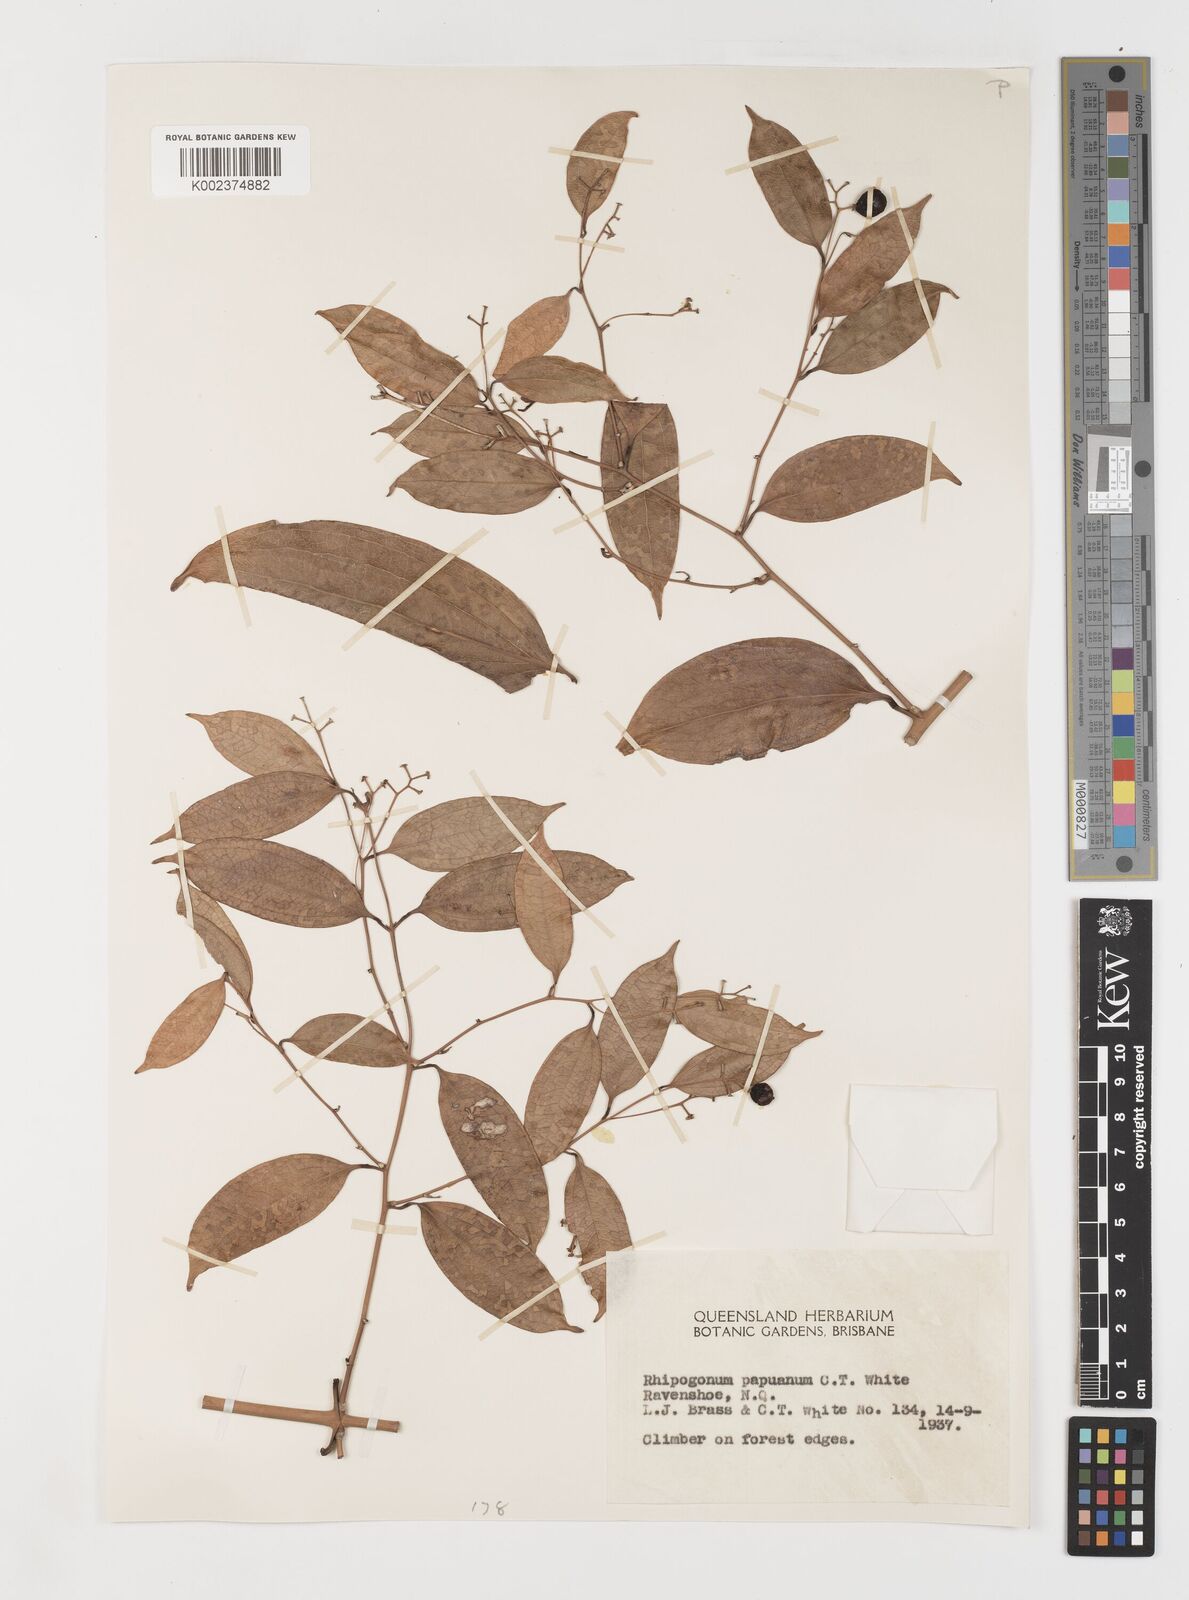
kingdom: Plantae
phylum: Tracheophyta
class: Liliopsida
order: Liliales
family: Ripogonaceae
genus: Ripogonum
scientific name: Ripogonum album
